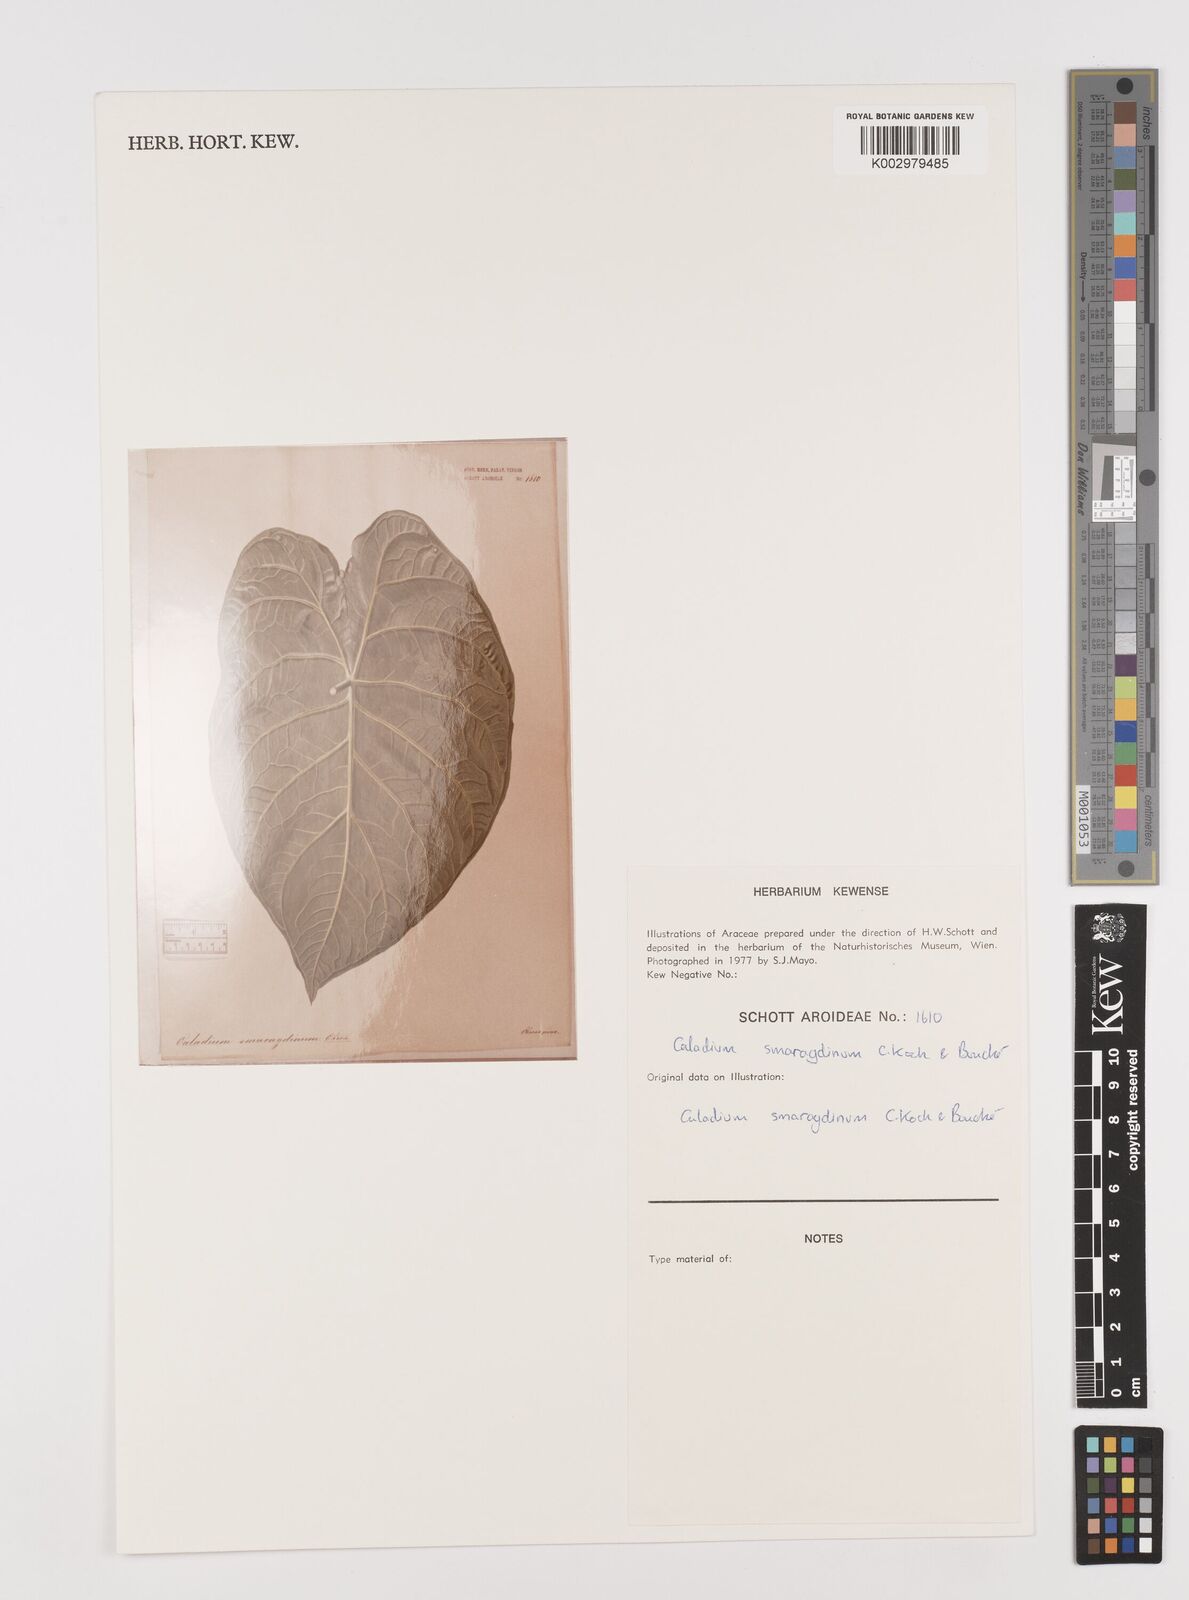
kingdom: Plantae
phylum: Tracheophyta
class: Liliopsida
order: Alismatales
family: Araceae
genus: Caladium
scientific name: Caladium schomburgkii
